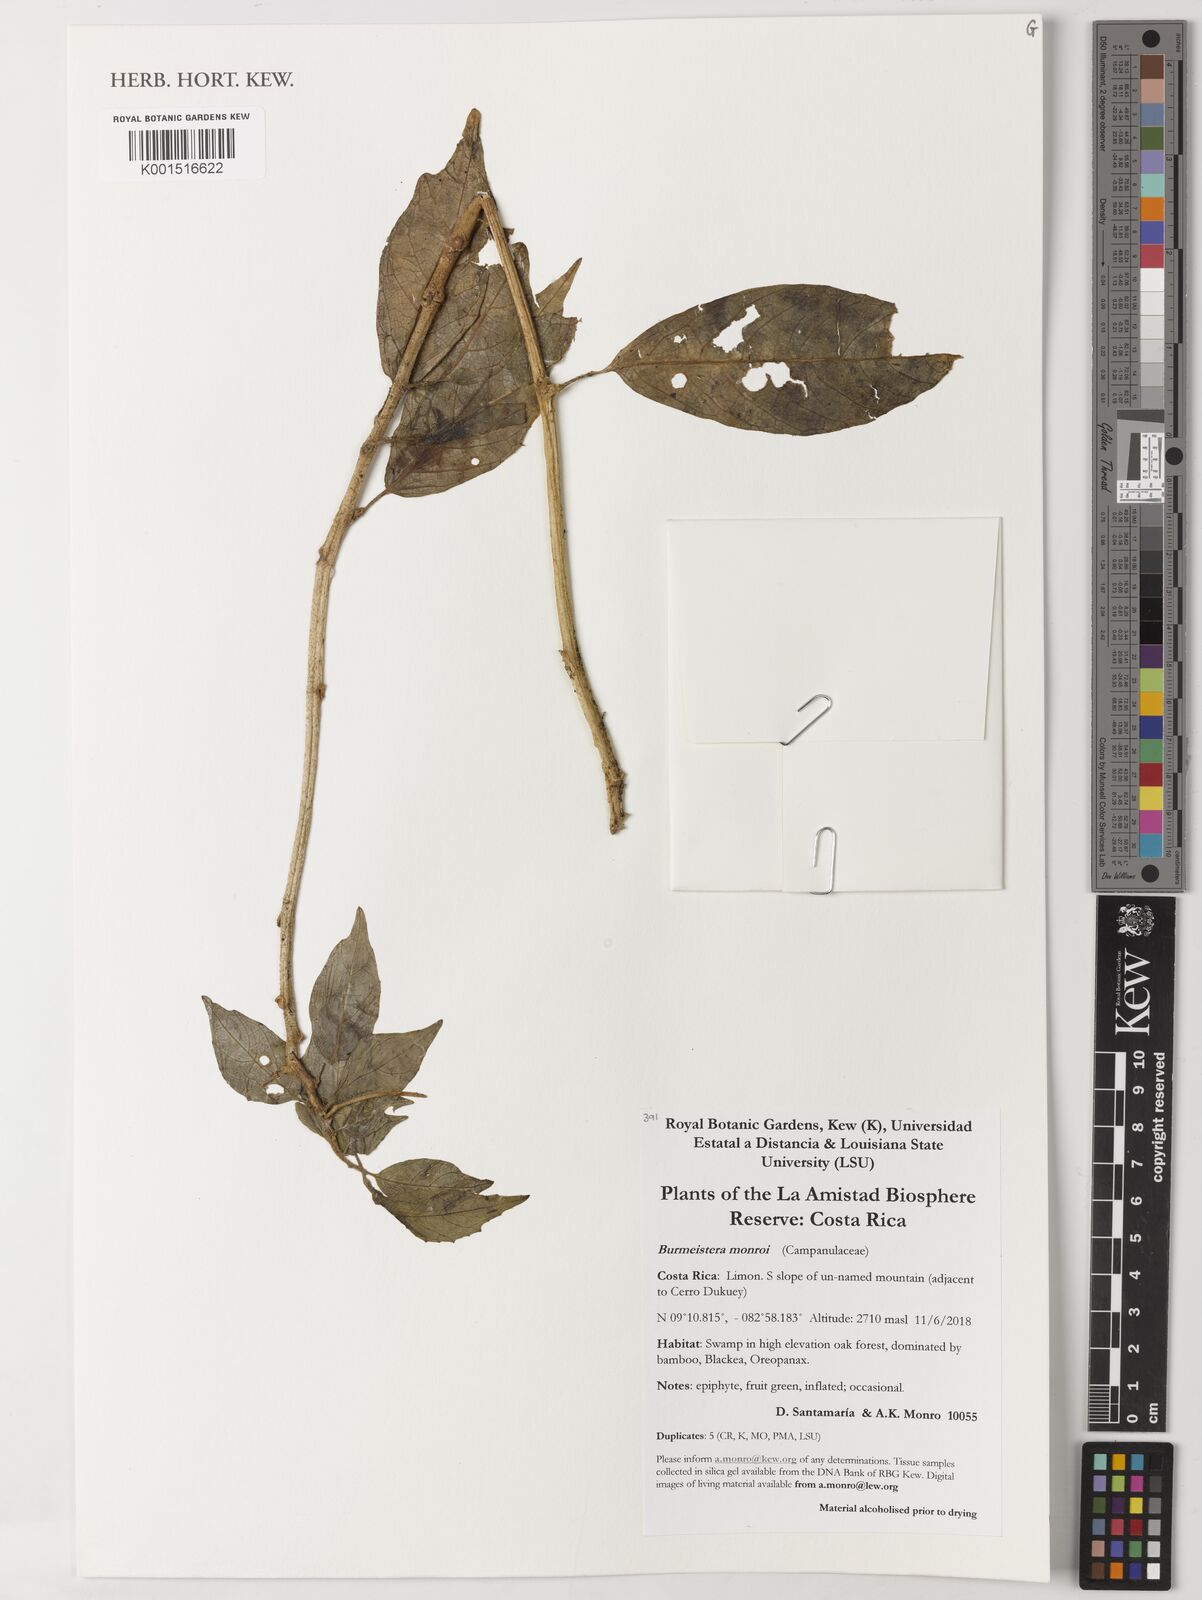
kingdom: Plantae
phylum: Tracheophyta
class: Magnoliopsida
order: Asterales
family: Campanulaceae
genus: Burmeistera
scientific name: Burmeistera monroi
